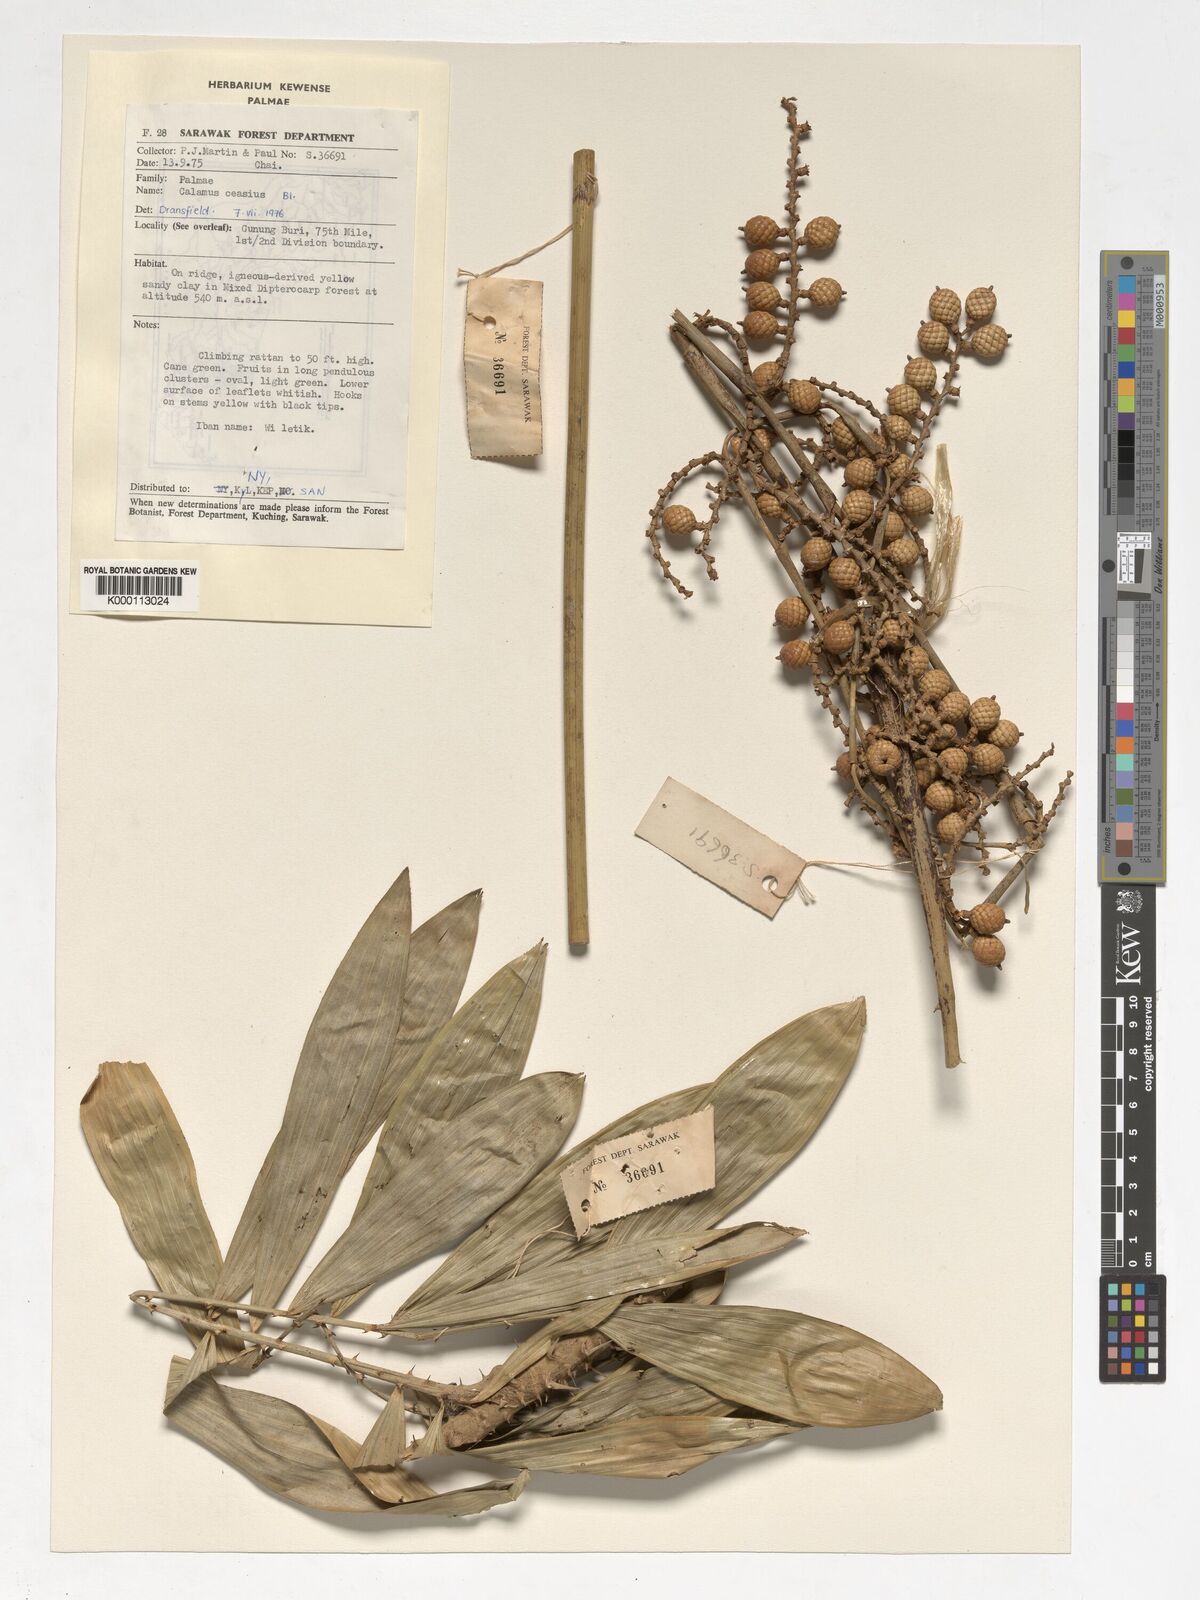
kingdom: Plantae
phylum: Tracheophyta
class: Liliopsida
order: Arecales
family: Arecaceae
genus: Calamus
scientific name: Calamus caesius
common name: Rattan palm
